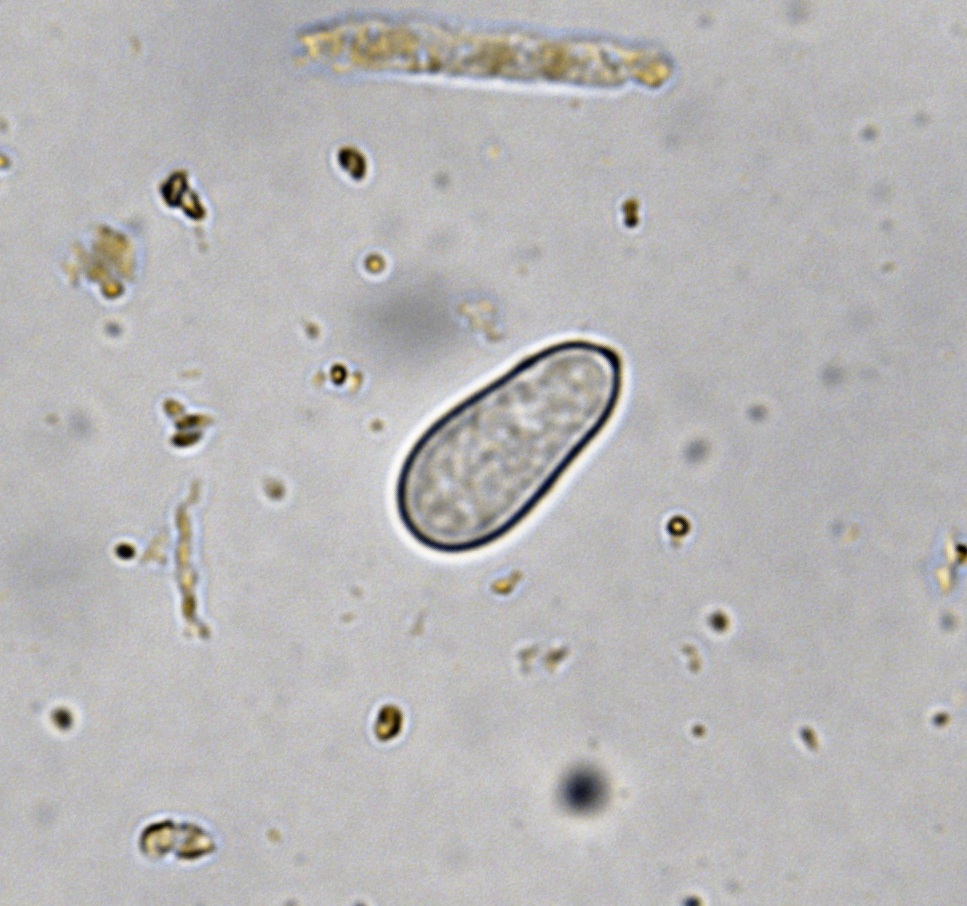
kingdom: Fungi
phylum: Ascomycota
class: Dothideomycetes
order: Mycosphaerellales
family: Mycosphaerellaceae
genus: Ramularia
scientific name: Ramularia rubella
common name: Red dock spot
